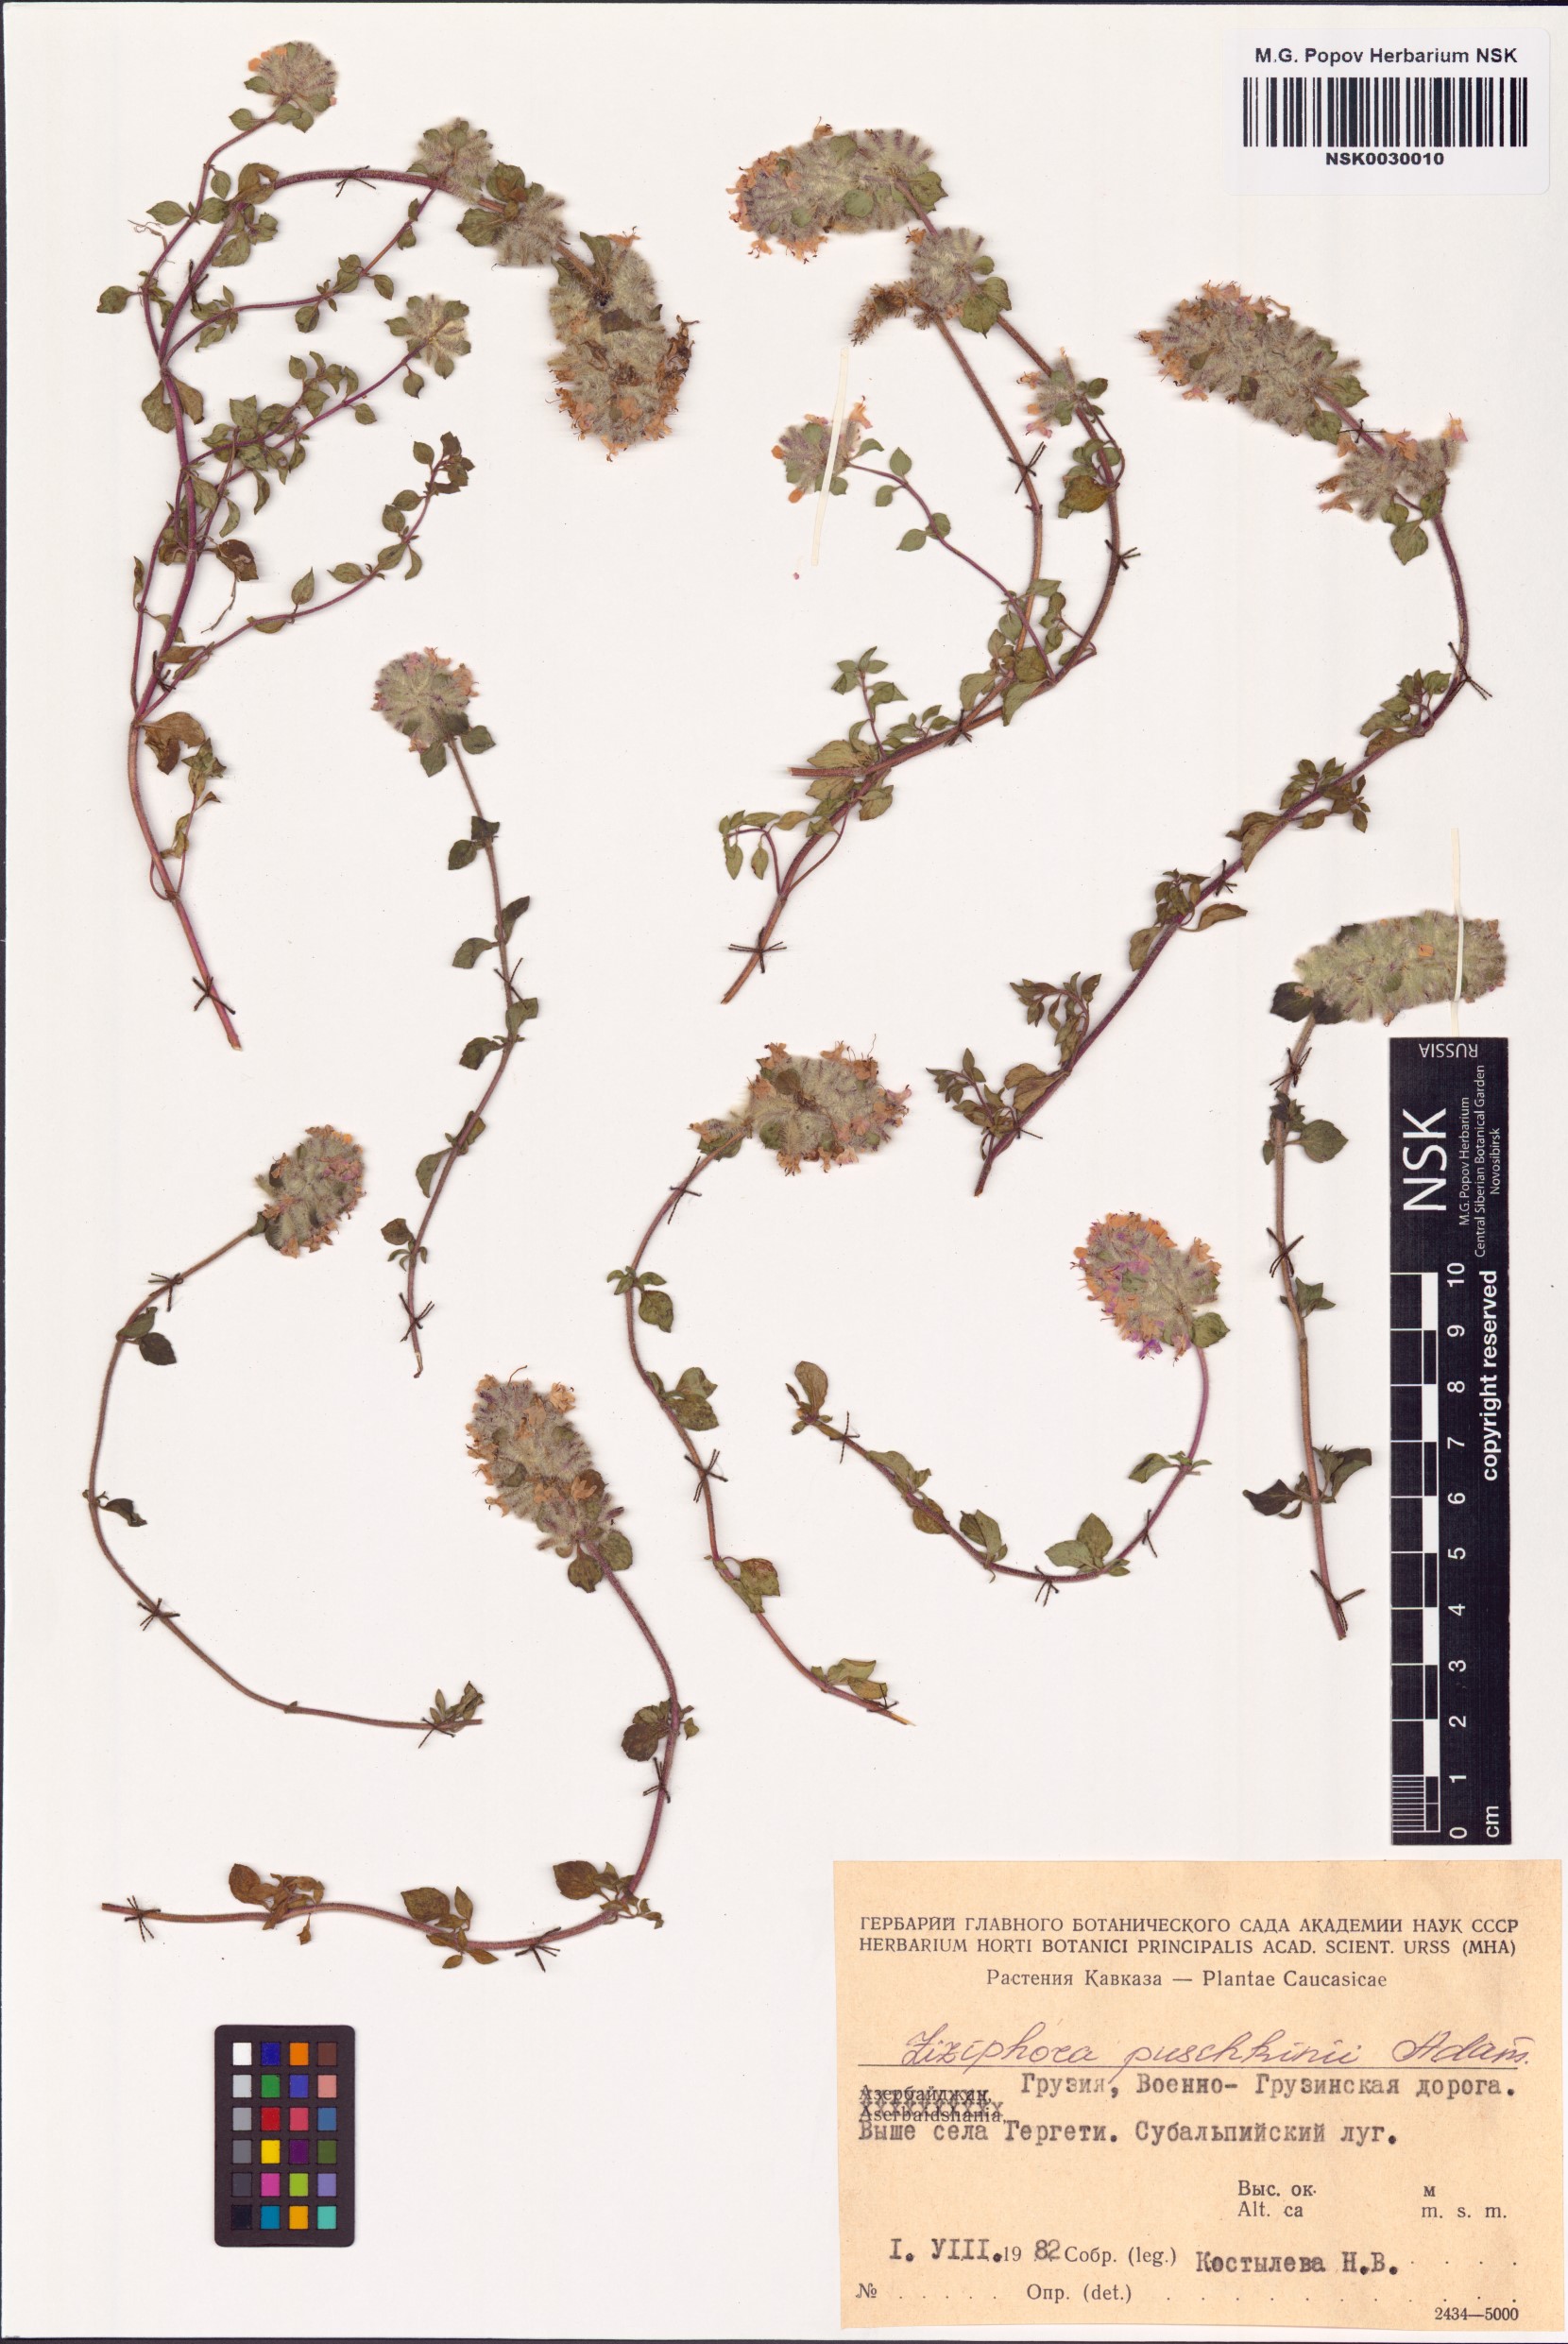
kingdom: Plantae
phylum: Tracheophyta
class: Magnoliopsida
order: Lamiales
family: Lamiaceae
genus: Ziziphora
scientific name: Ziziphora puschkinii
